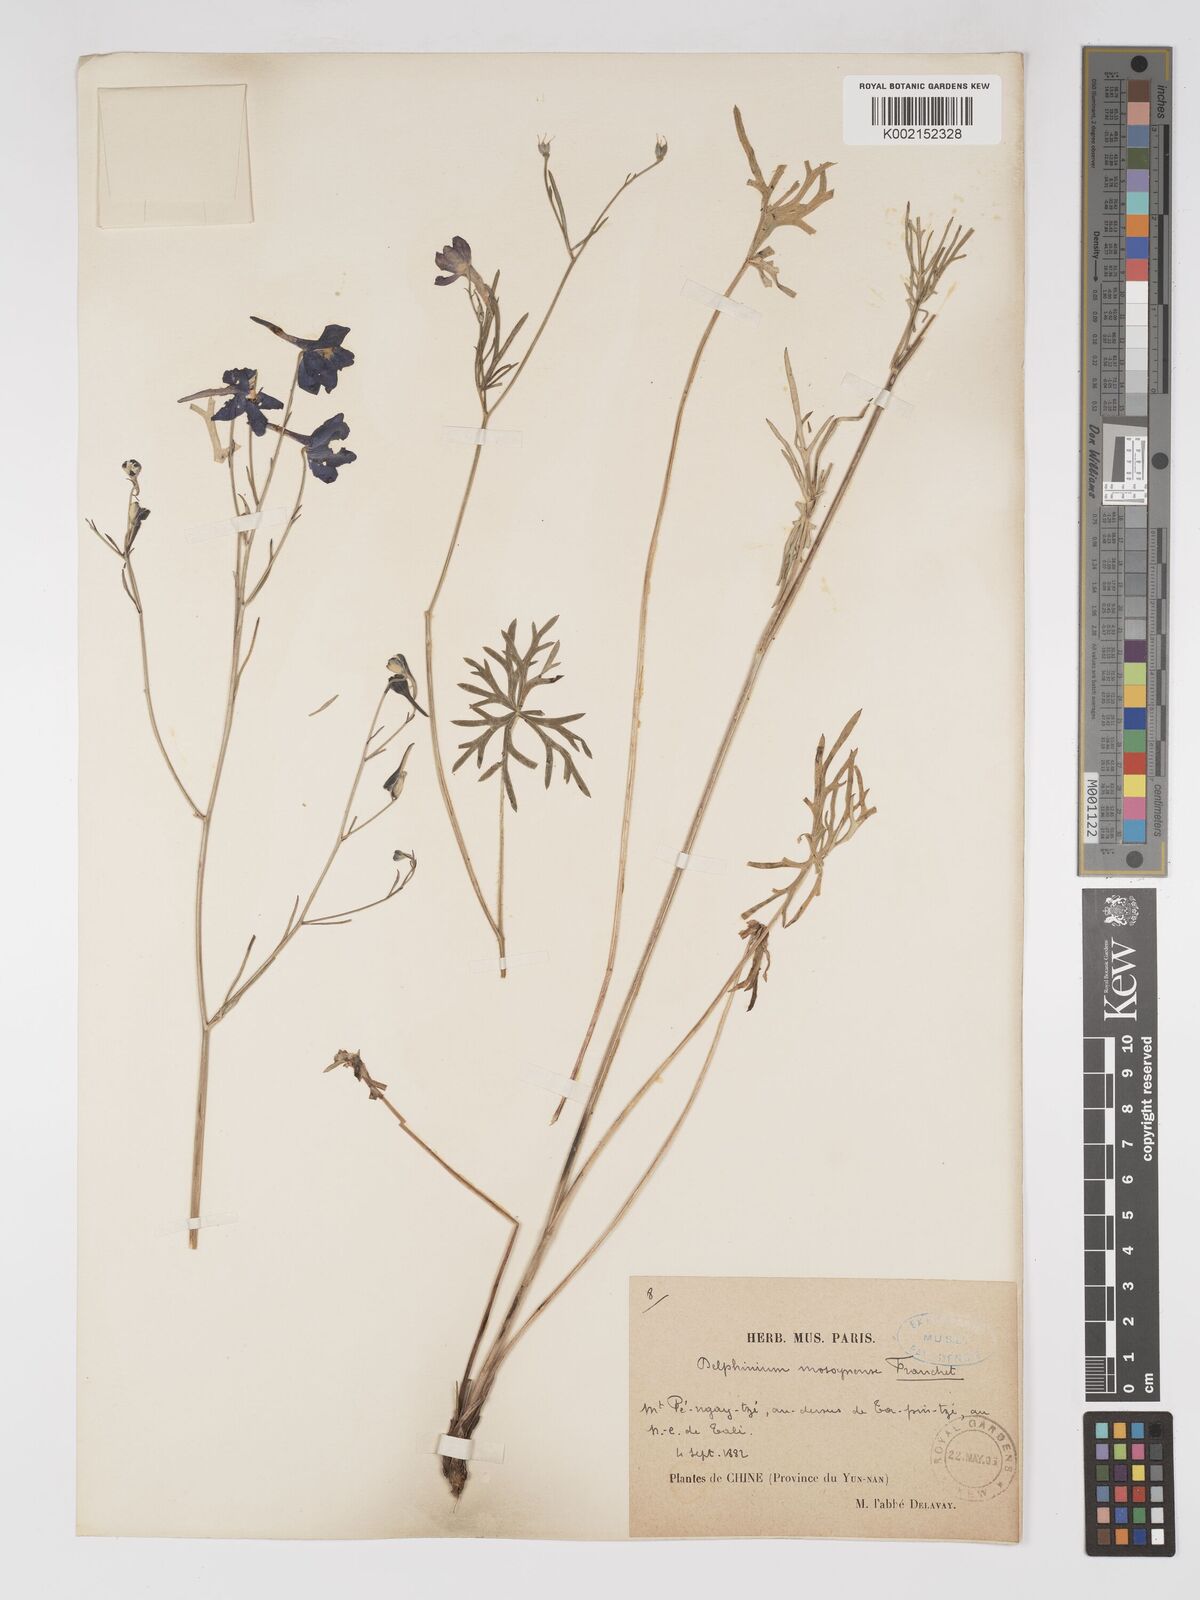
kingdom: Plantae
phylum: Tracheophyta
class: Magnoliopsida
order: Ranunculales
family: Ranunculaceae
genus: Delphinium
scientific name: Delphinium grandiflorum
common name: Siberian larkspur
